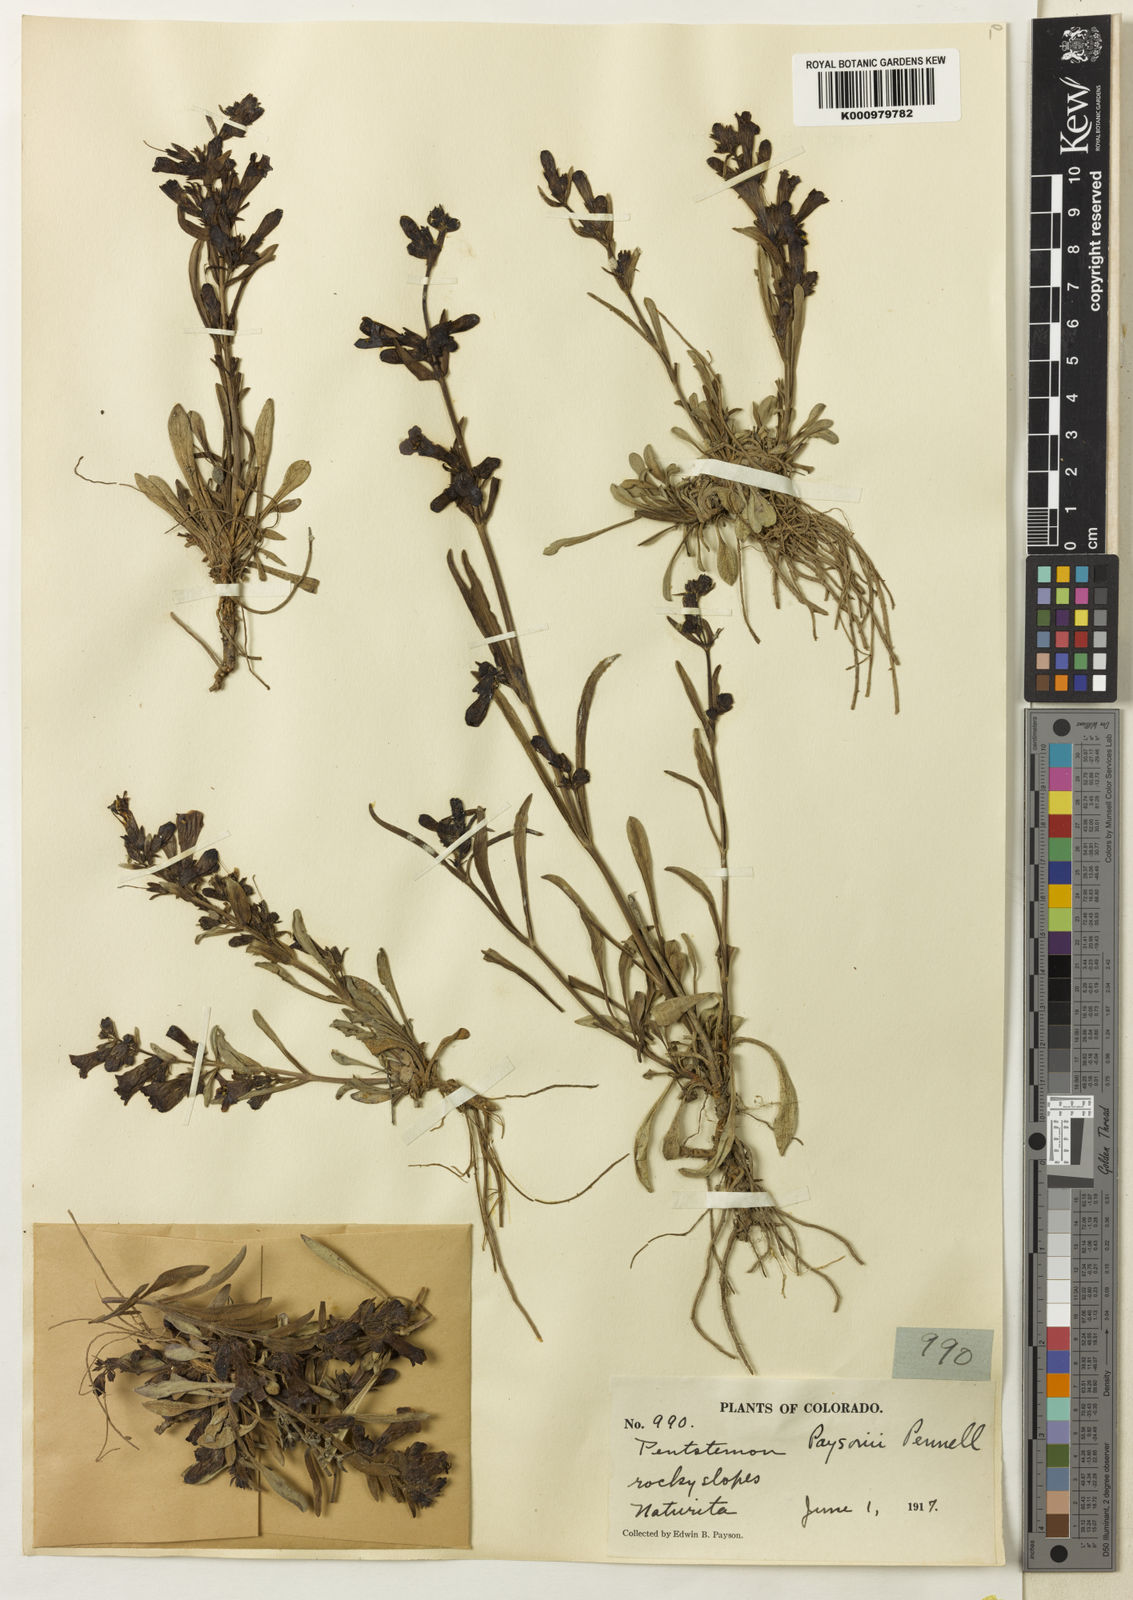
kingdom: Plantae
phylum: Tracheophyta
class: Magnoliopsida
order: Lamiales
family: Plantaginaceae
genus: Penstemon
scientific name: Penstemon moffattii
